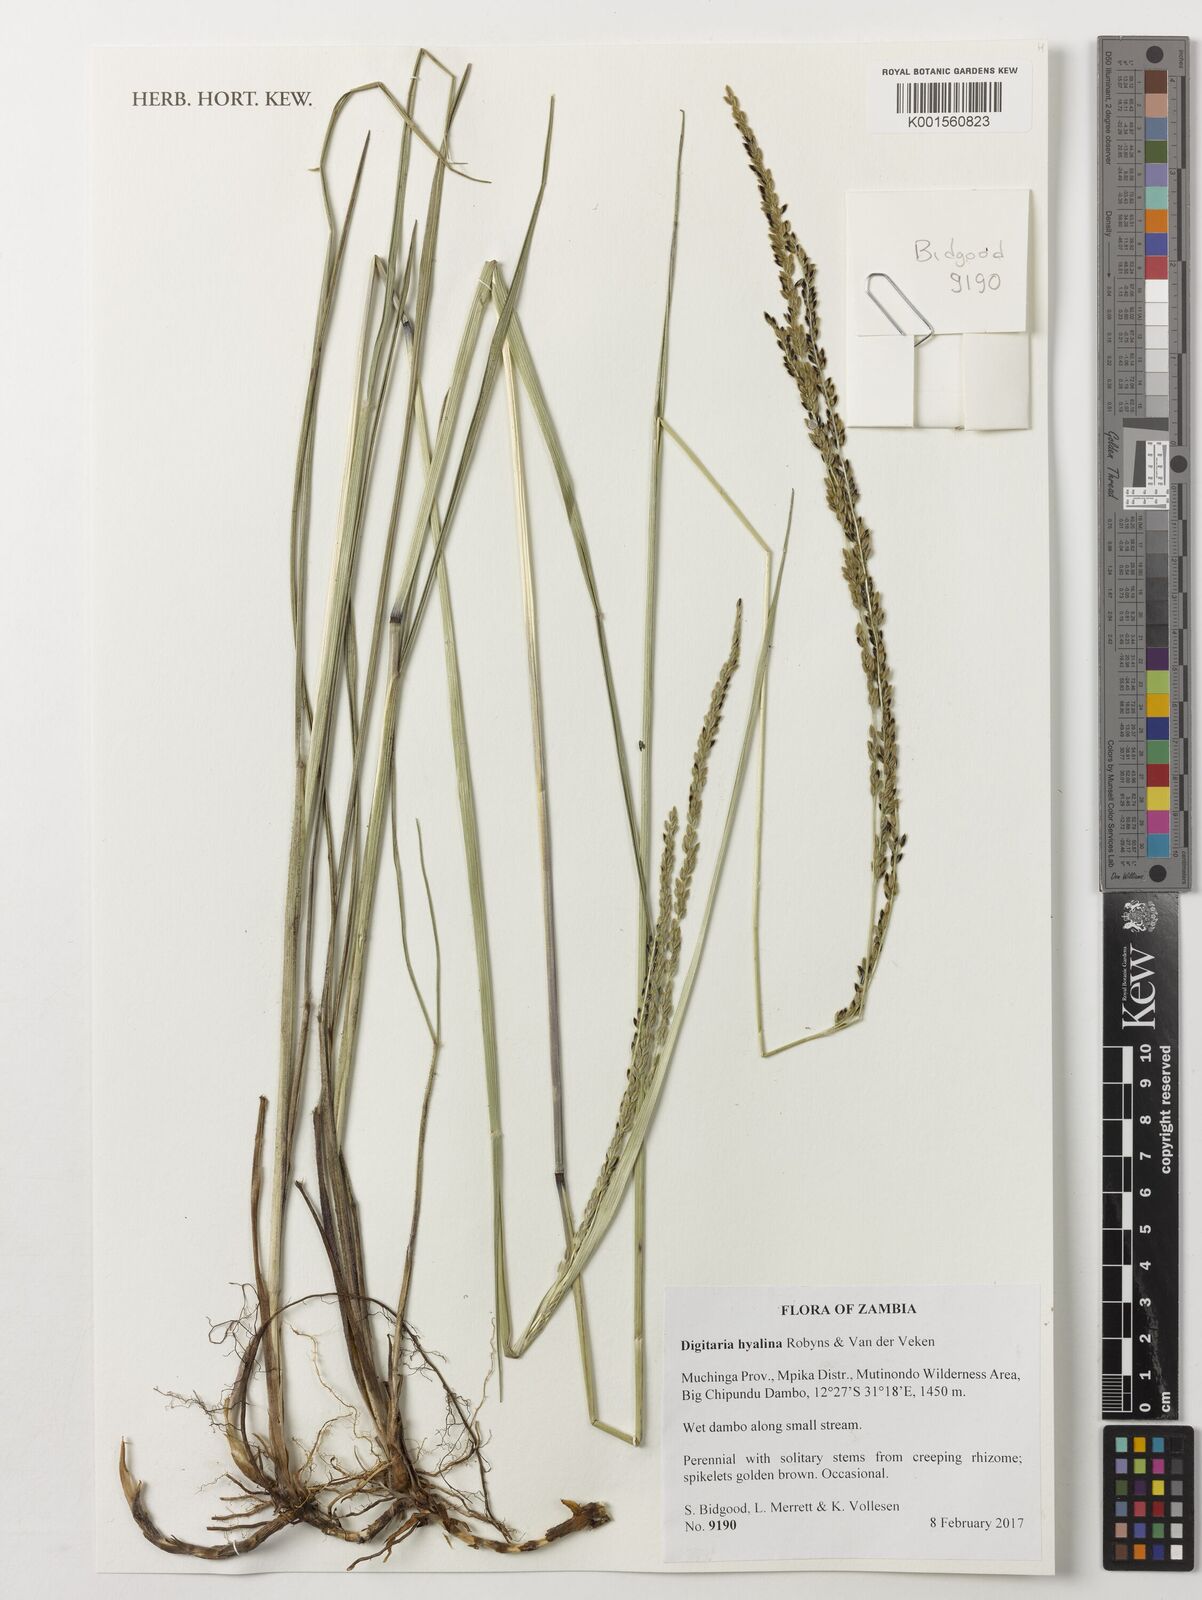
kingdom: Plantae
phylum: Tracheophyta
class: Liliopsida
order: Poales
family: Poaceae
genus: Digitaria
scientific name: Digitaria hyalina
